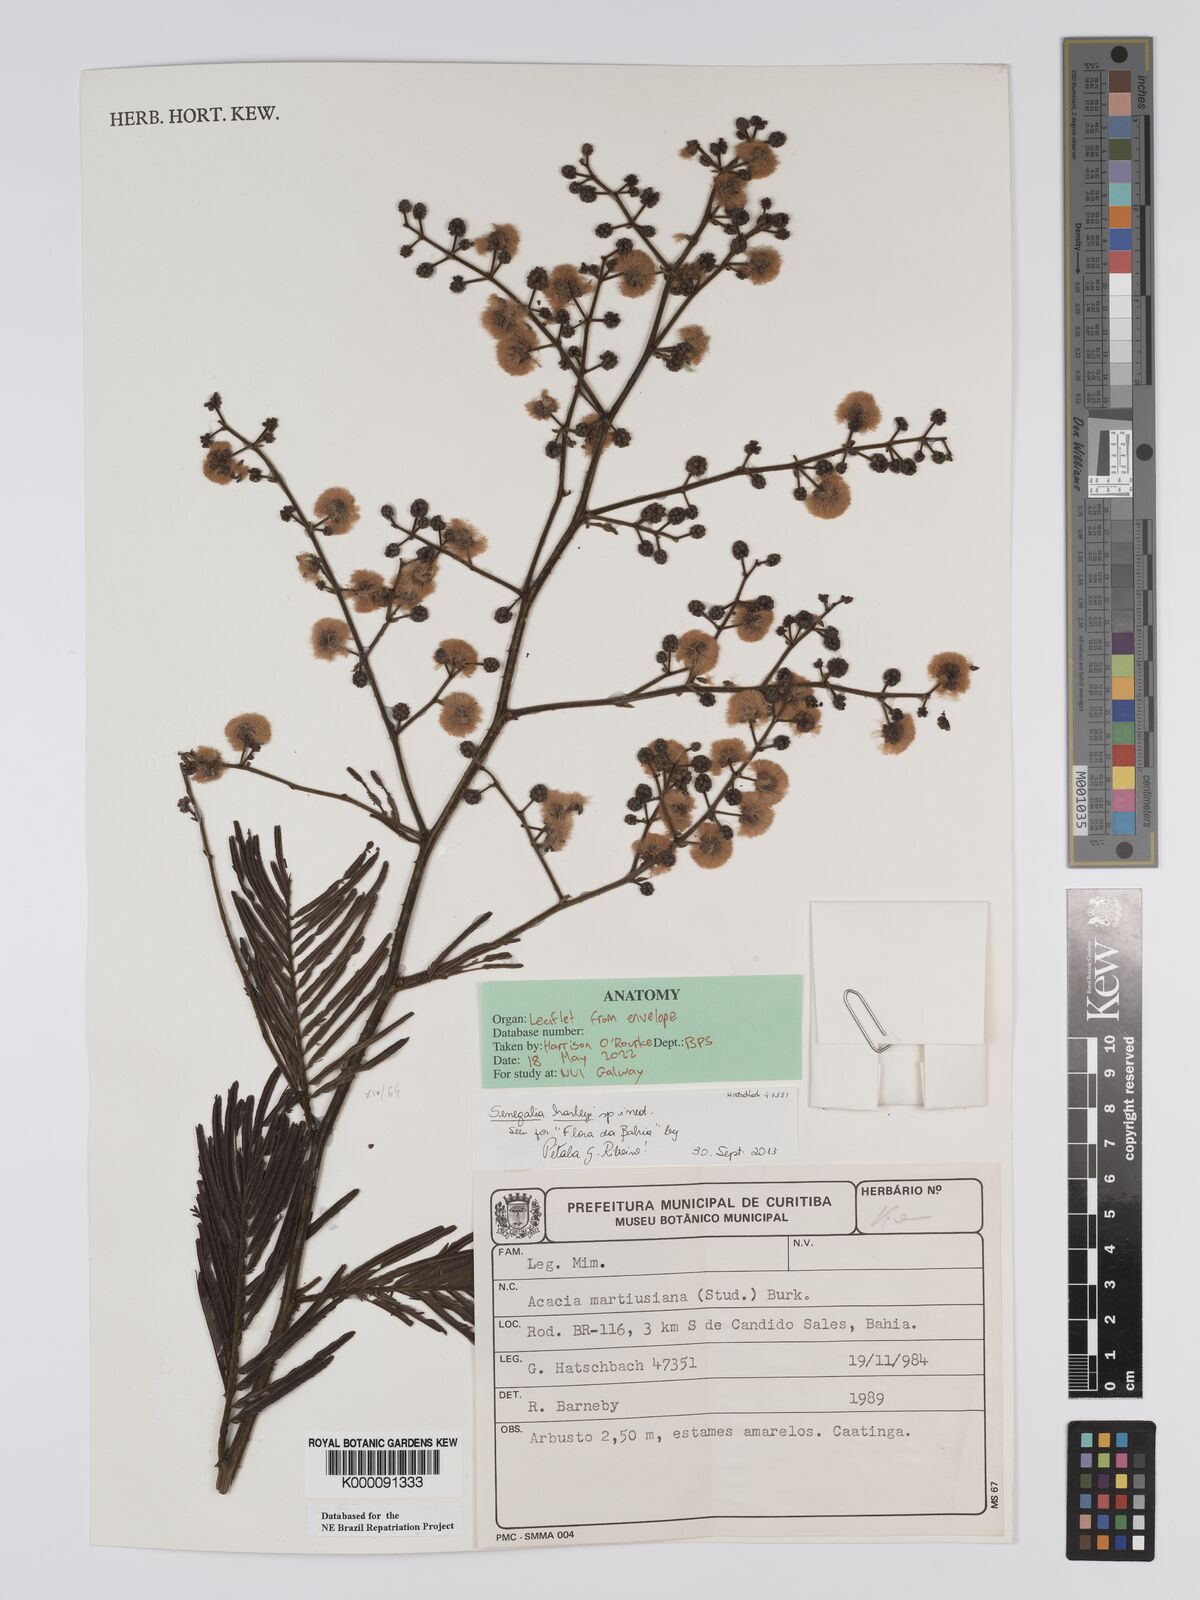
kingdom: Plantae
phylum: Tracheophyta
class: Magnoliopsida
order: Fabales
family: Fabaceae
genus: Senegalia
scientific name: Senegalia martiusiana
